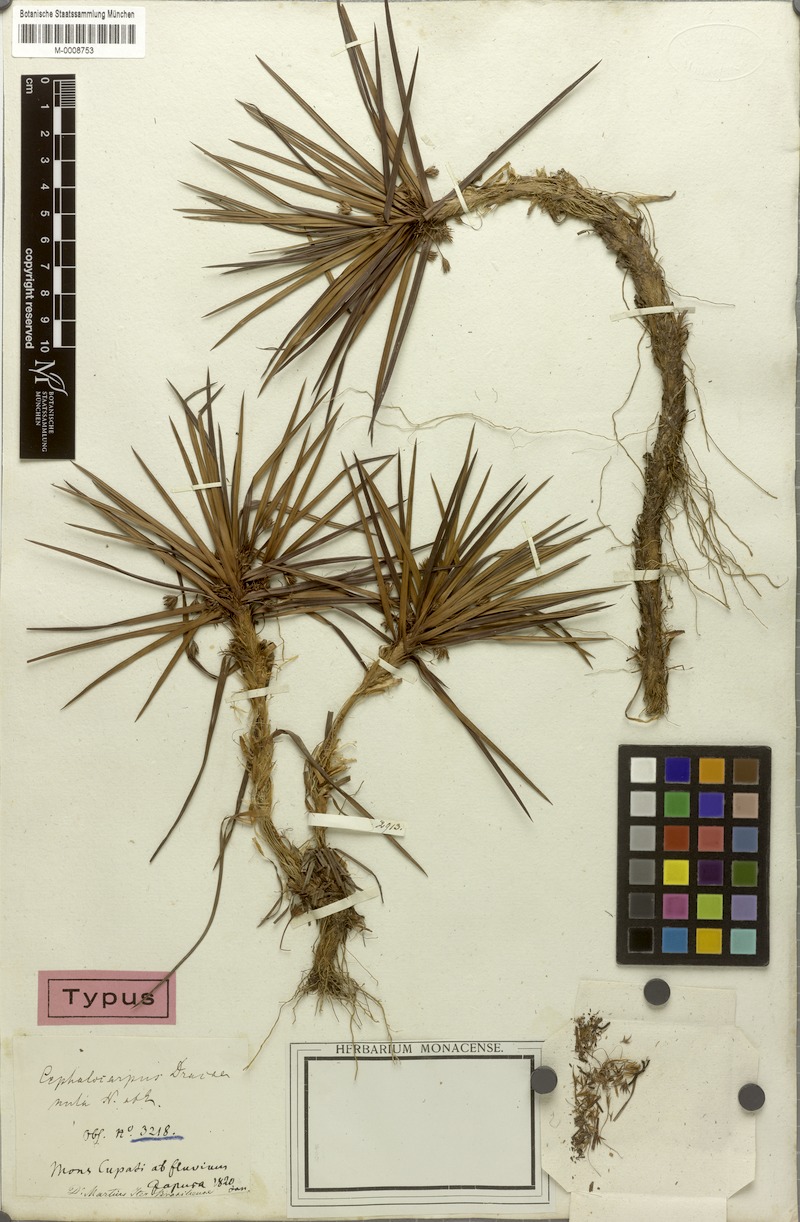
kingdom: Plantae
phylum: Tracheophyta
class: Liliopsida
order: Poales
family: Cyperaceae
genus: Cephalocarpus
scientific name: Cephalocarpus dracaenula
